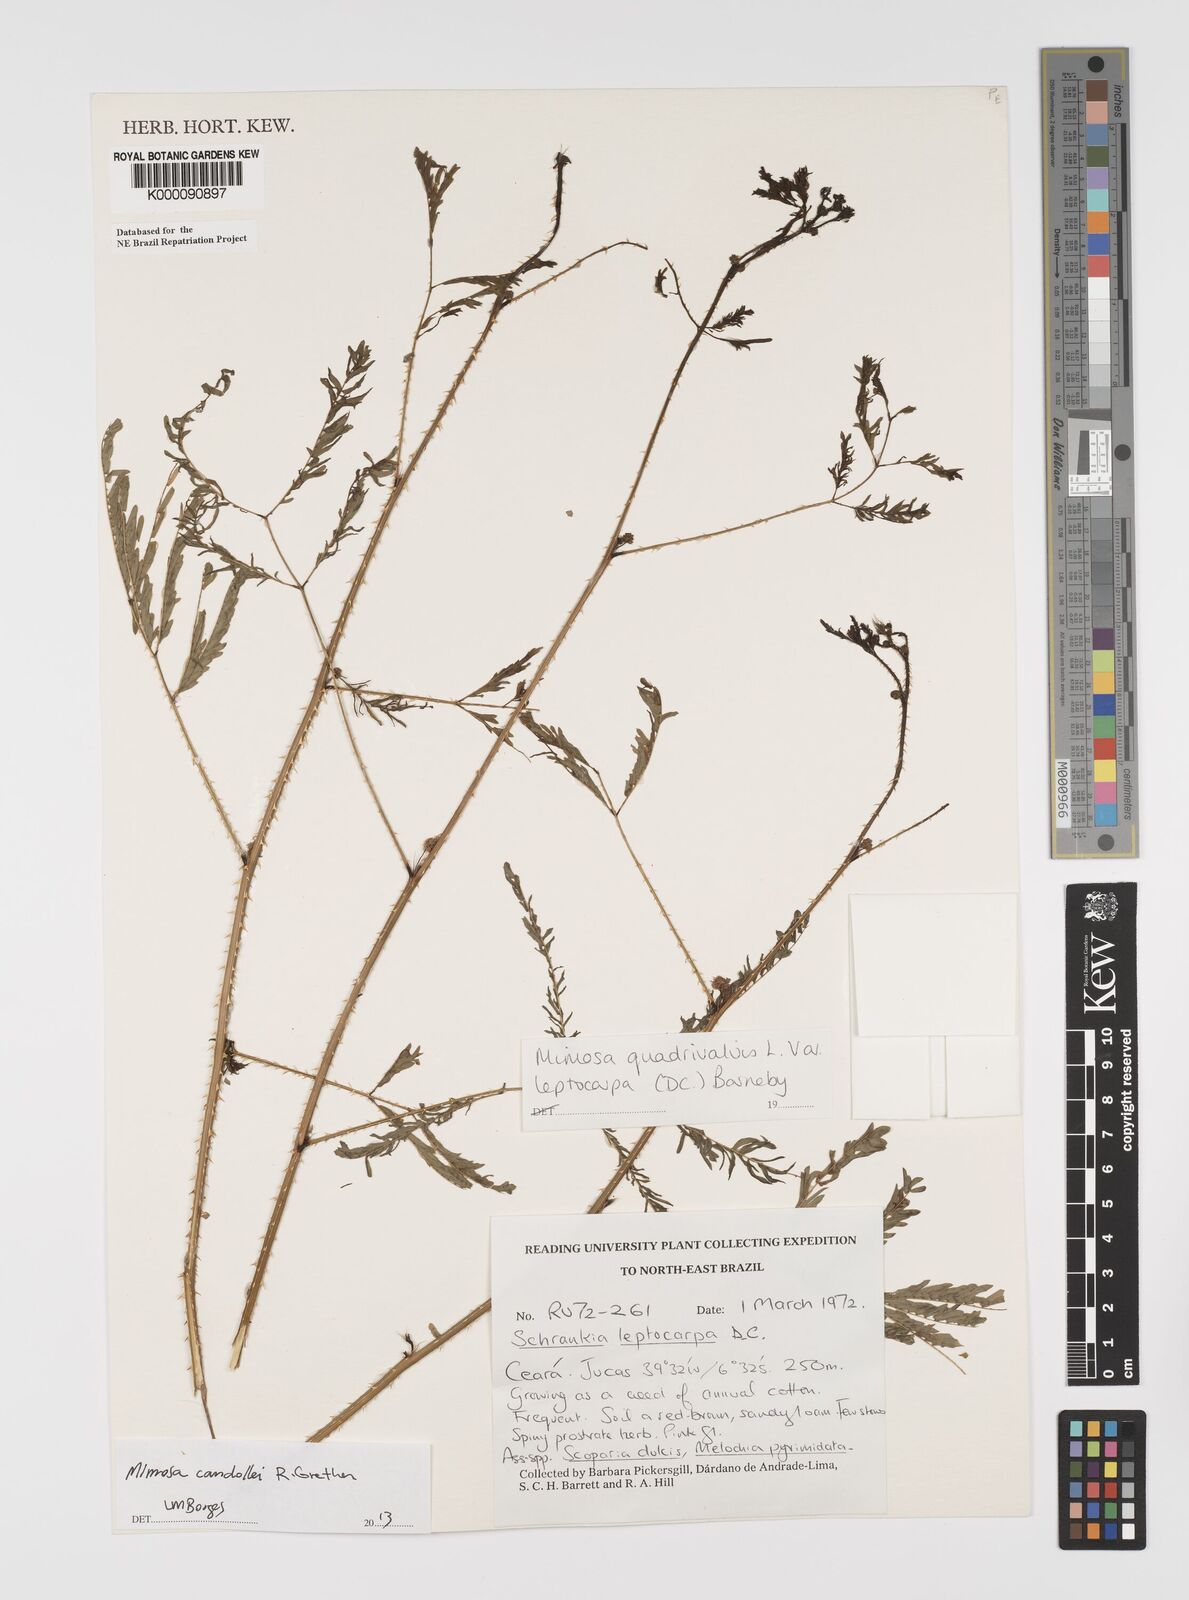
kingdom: Plantae
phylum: Tracheophyta
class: Magnoliopsida
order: Fabales
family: Fabaceae
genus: Mimosa
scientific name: Mimosa candollei
